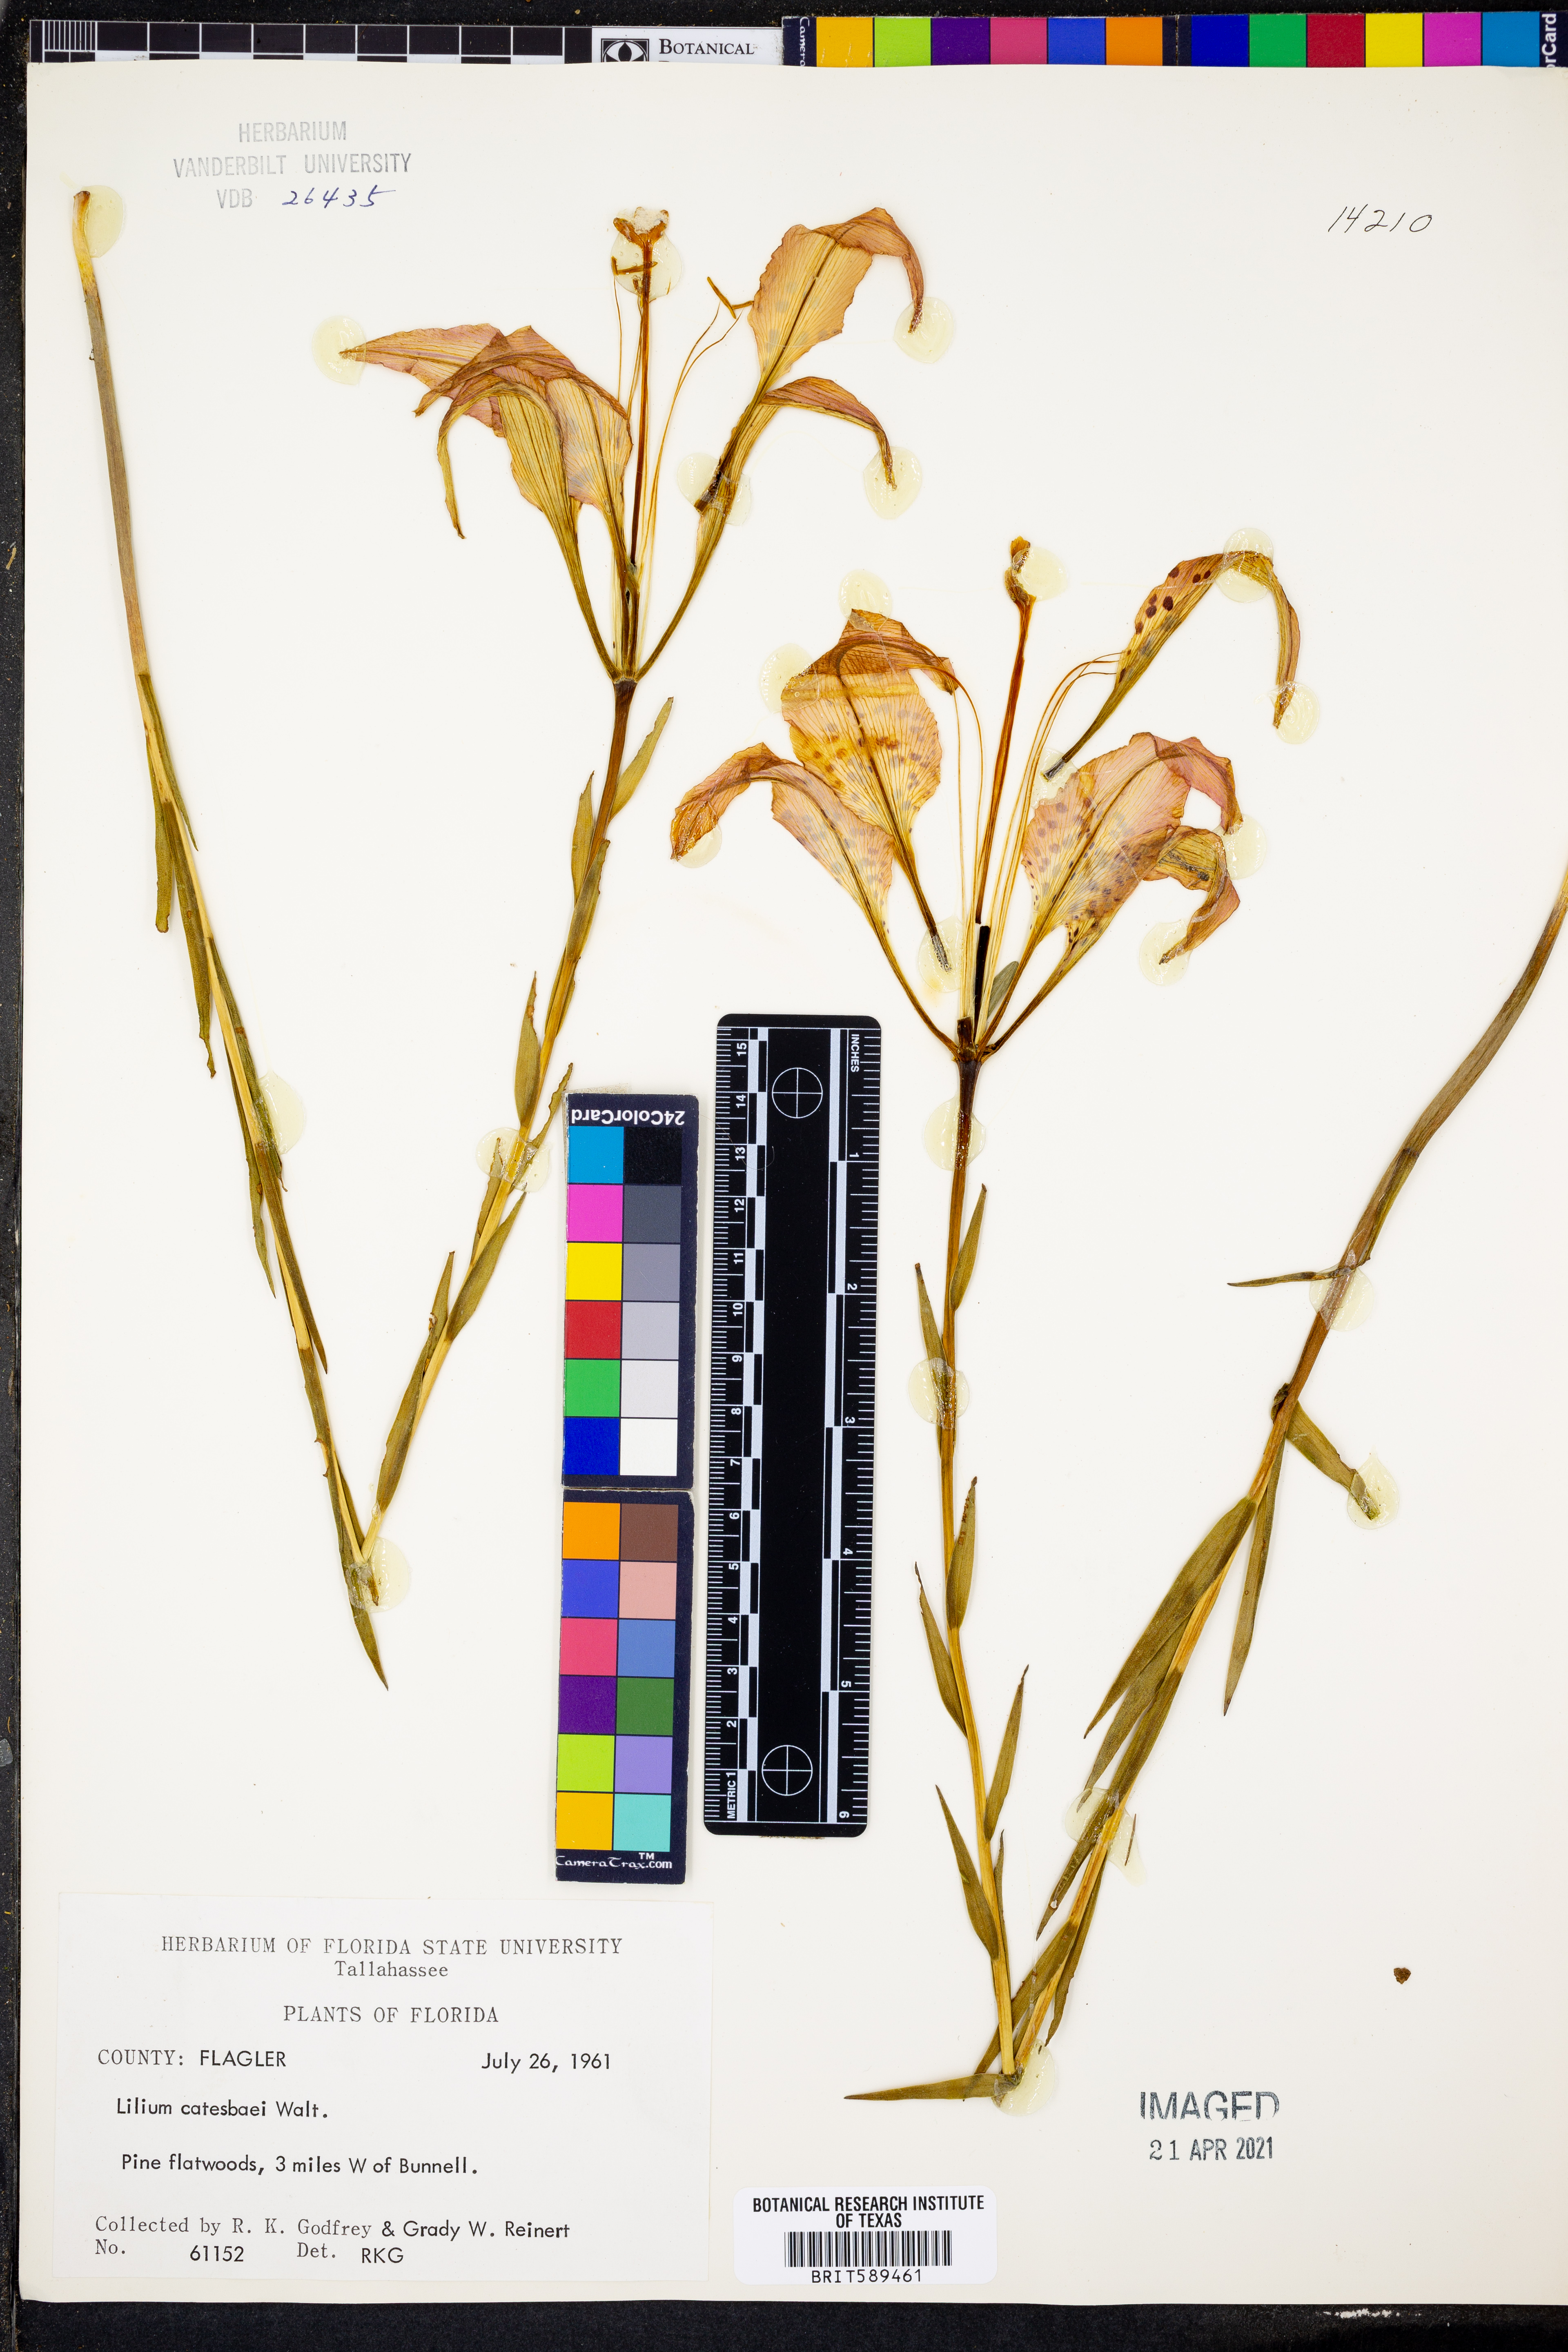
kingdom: Plantae
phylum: Tracheophyta
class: Liliopsida
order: Liliales
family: Liliaceae
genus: Lilium
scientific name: Lilium catesbaei
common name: Catesby's lily
